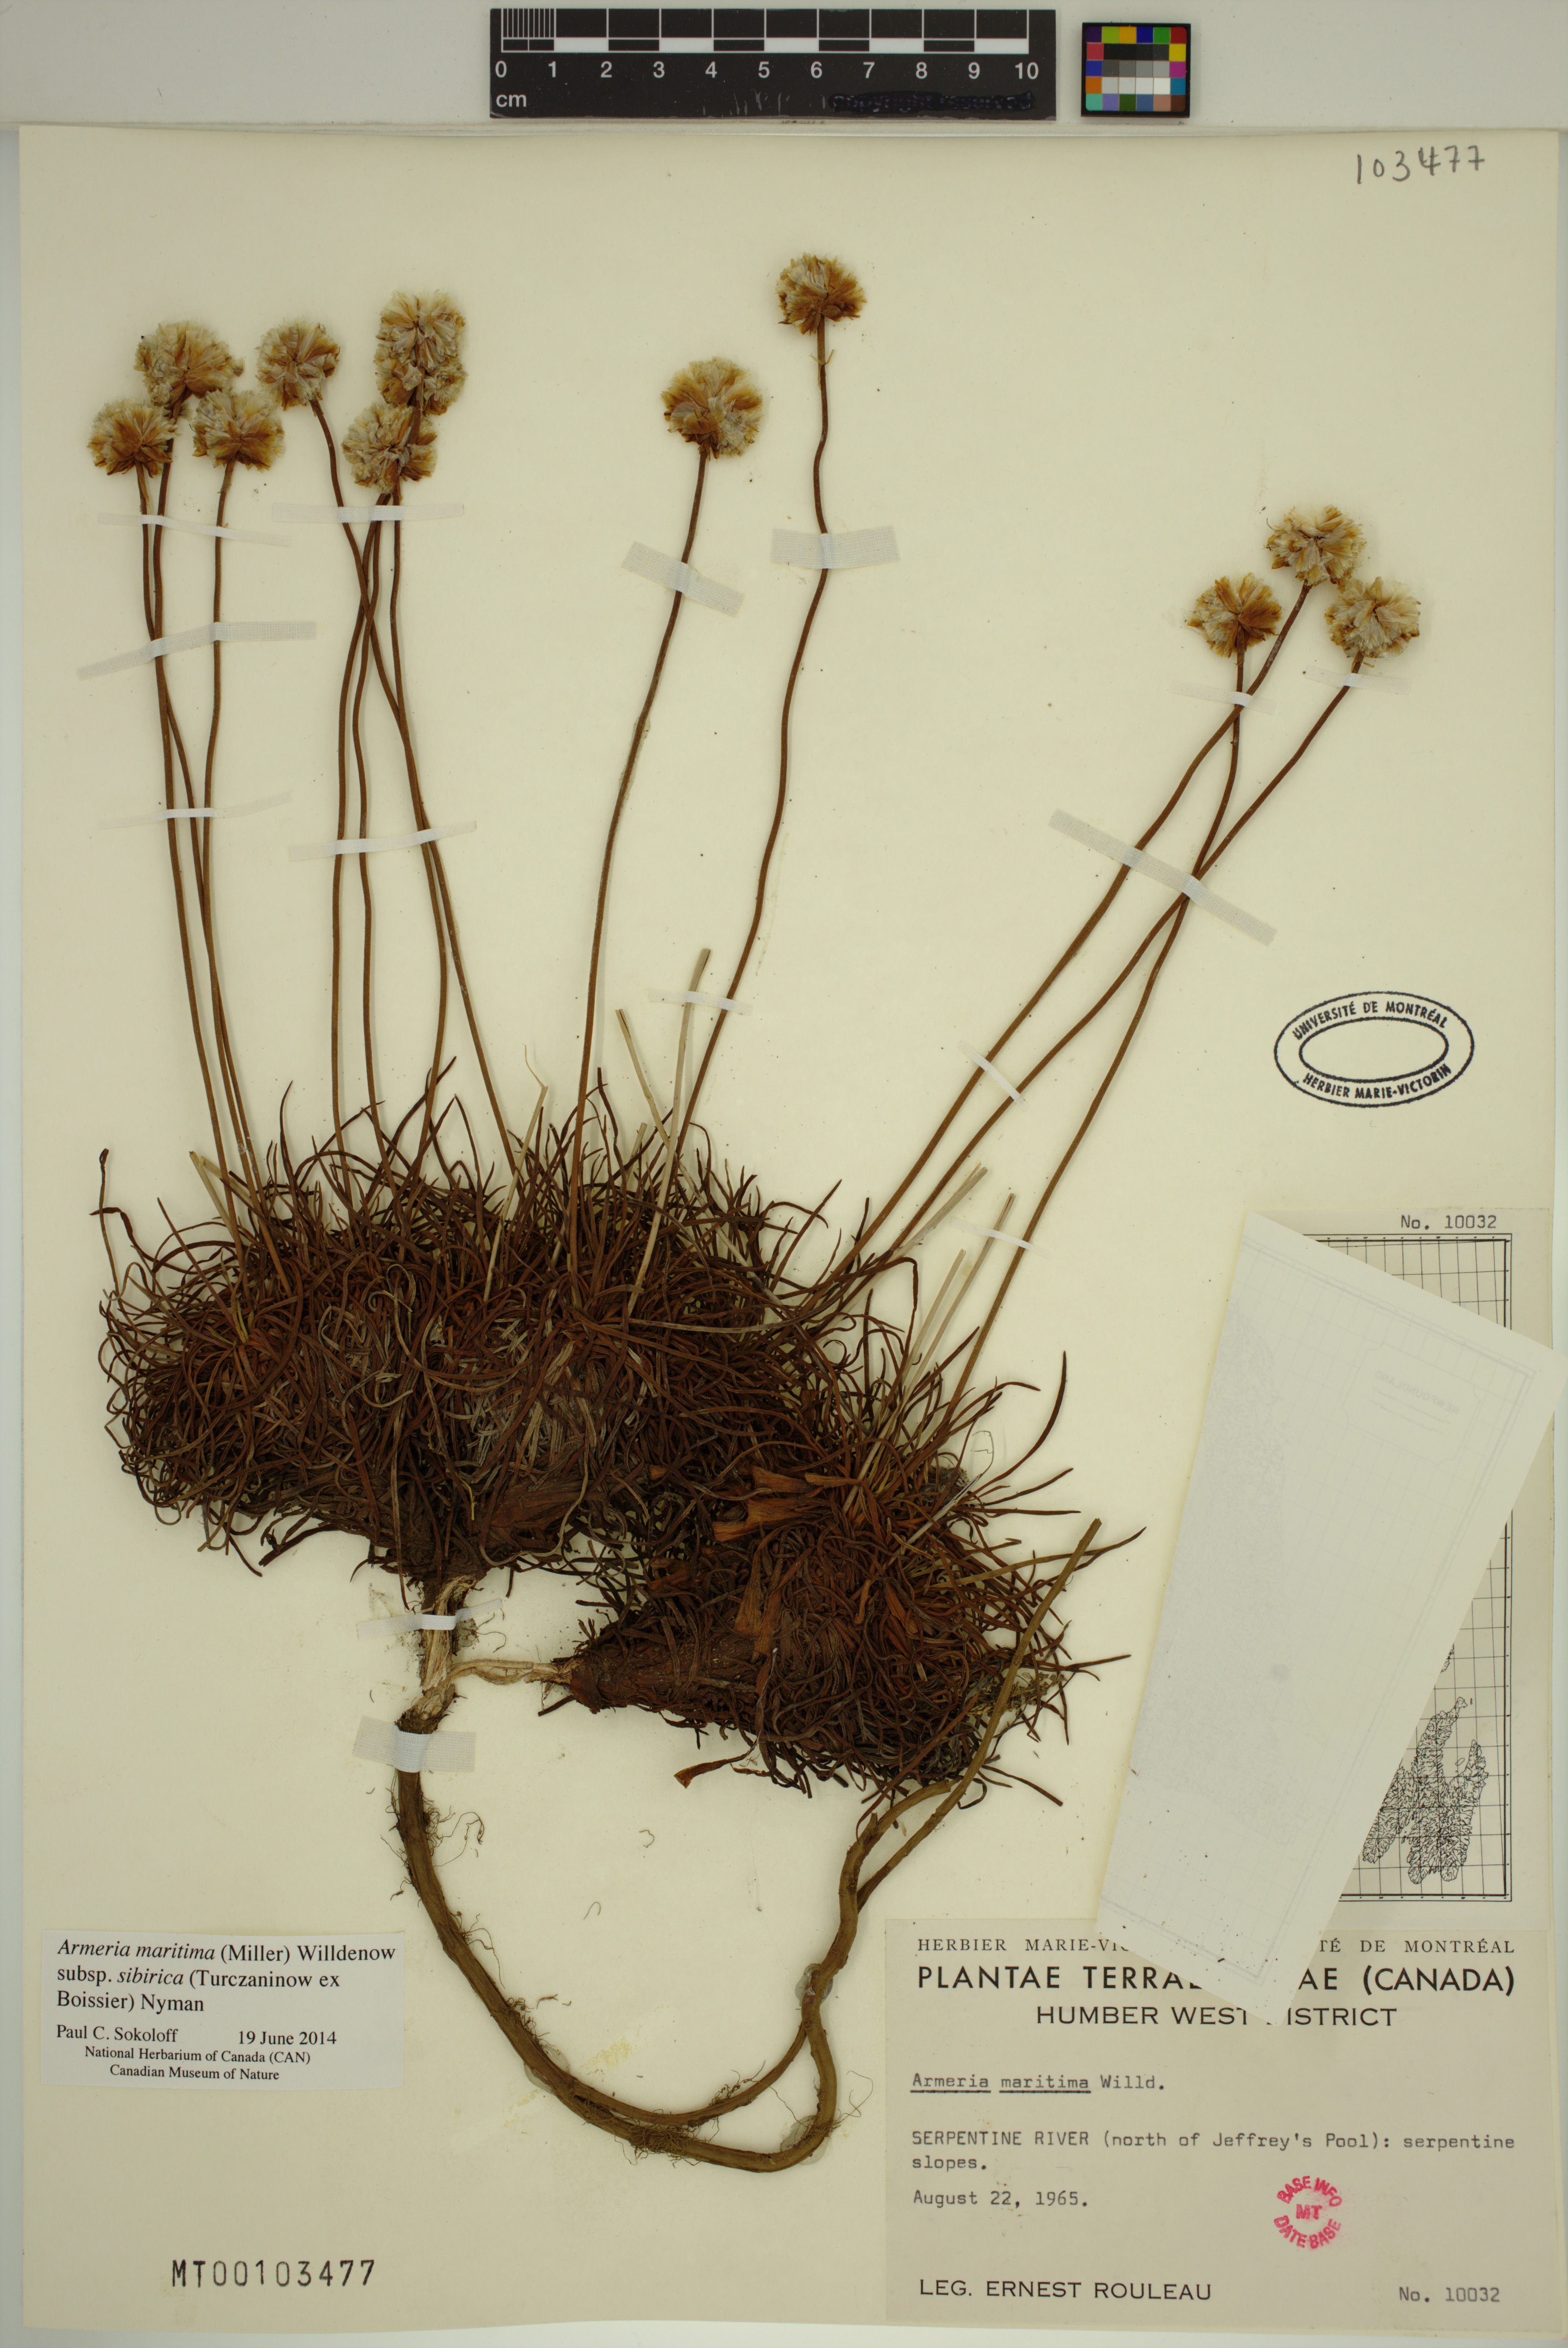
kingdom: Plantae
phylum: Tracheophyta
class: Magnoliopsida
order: Caryophyllales
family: Plumbaginaceae
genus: Armeria
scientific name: Armeria maritima
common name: Thrift
